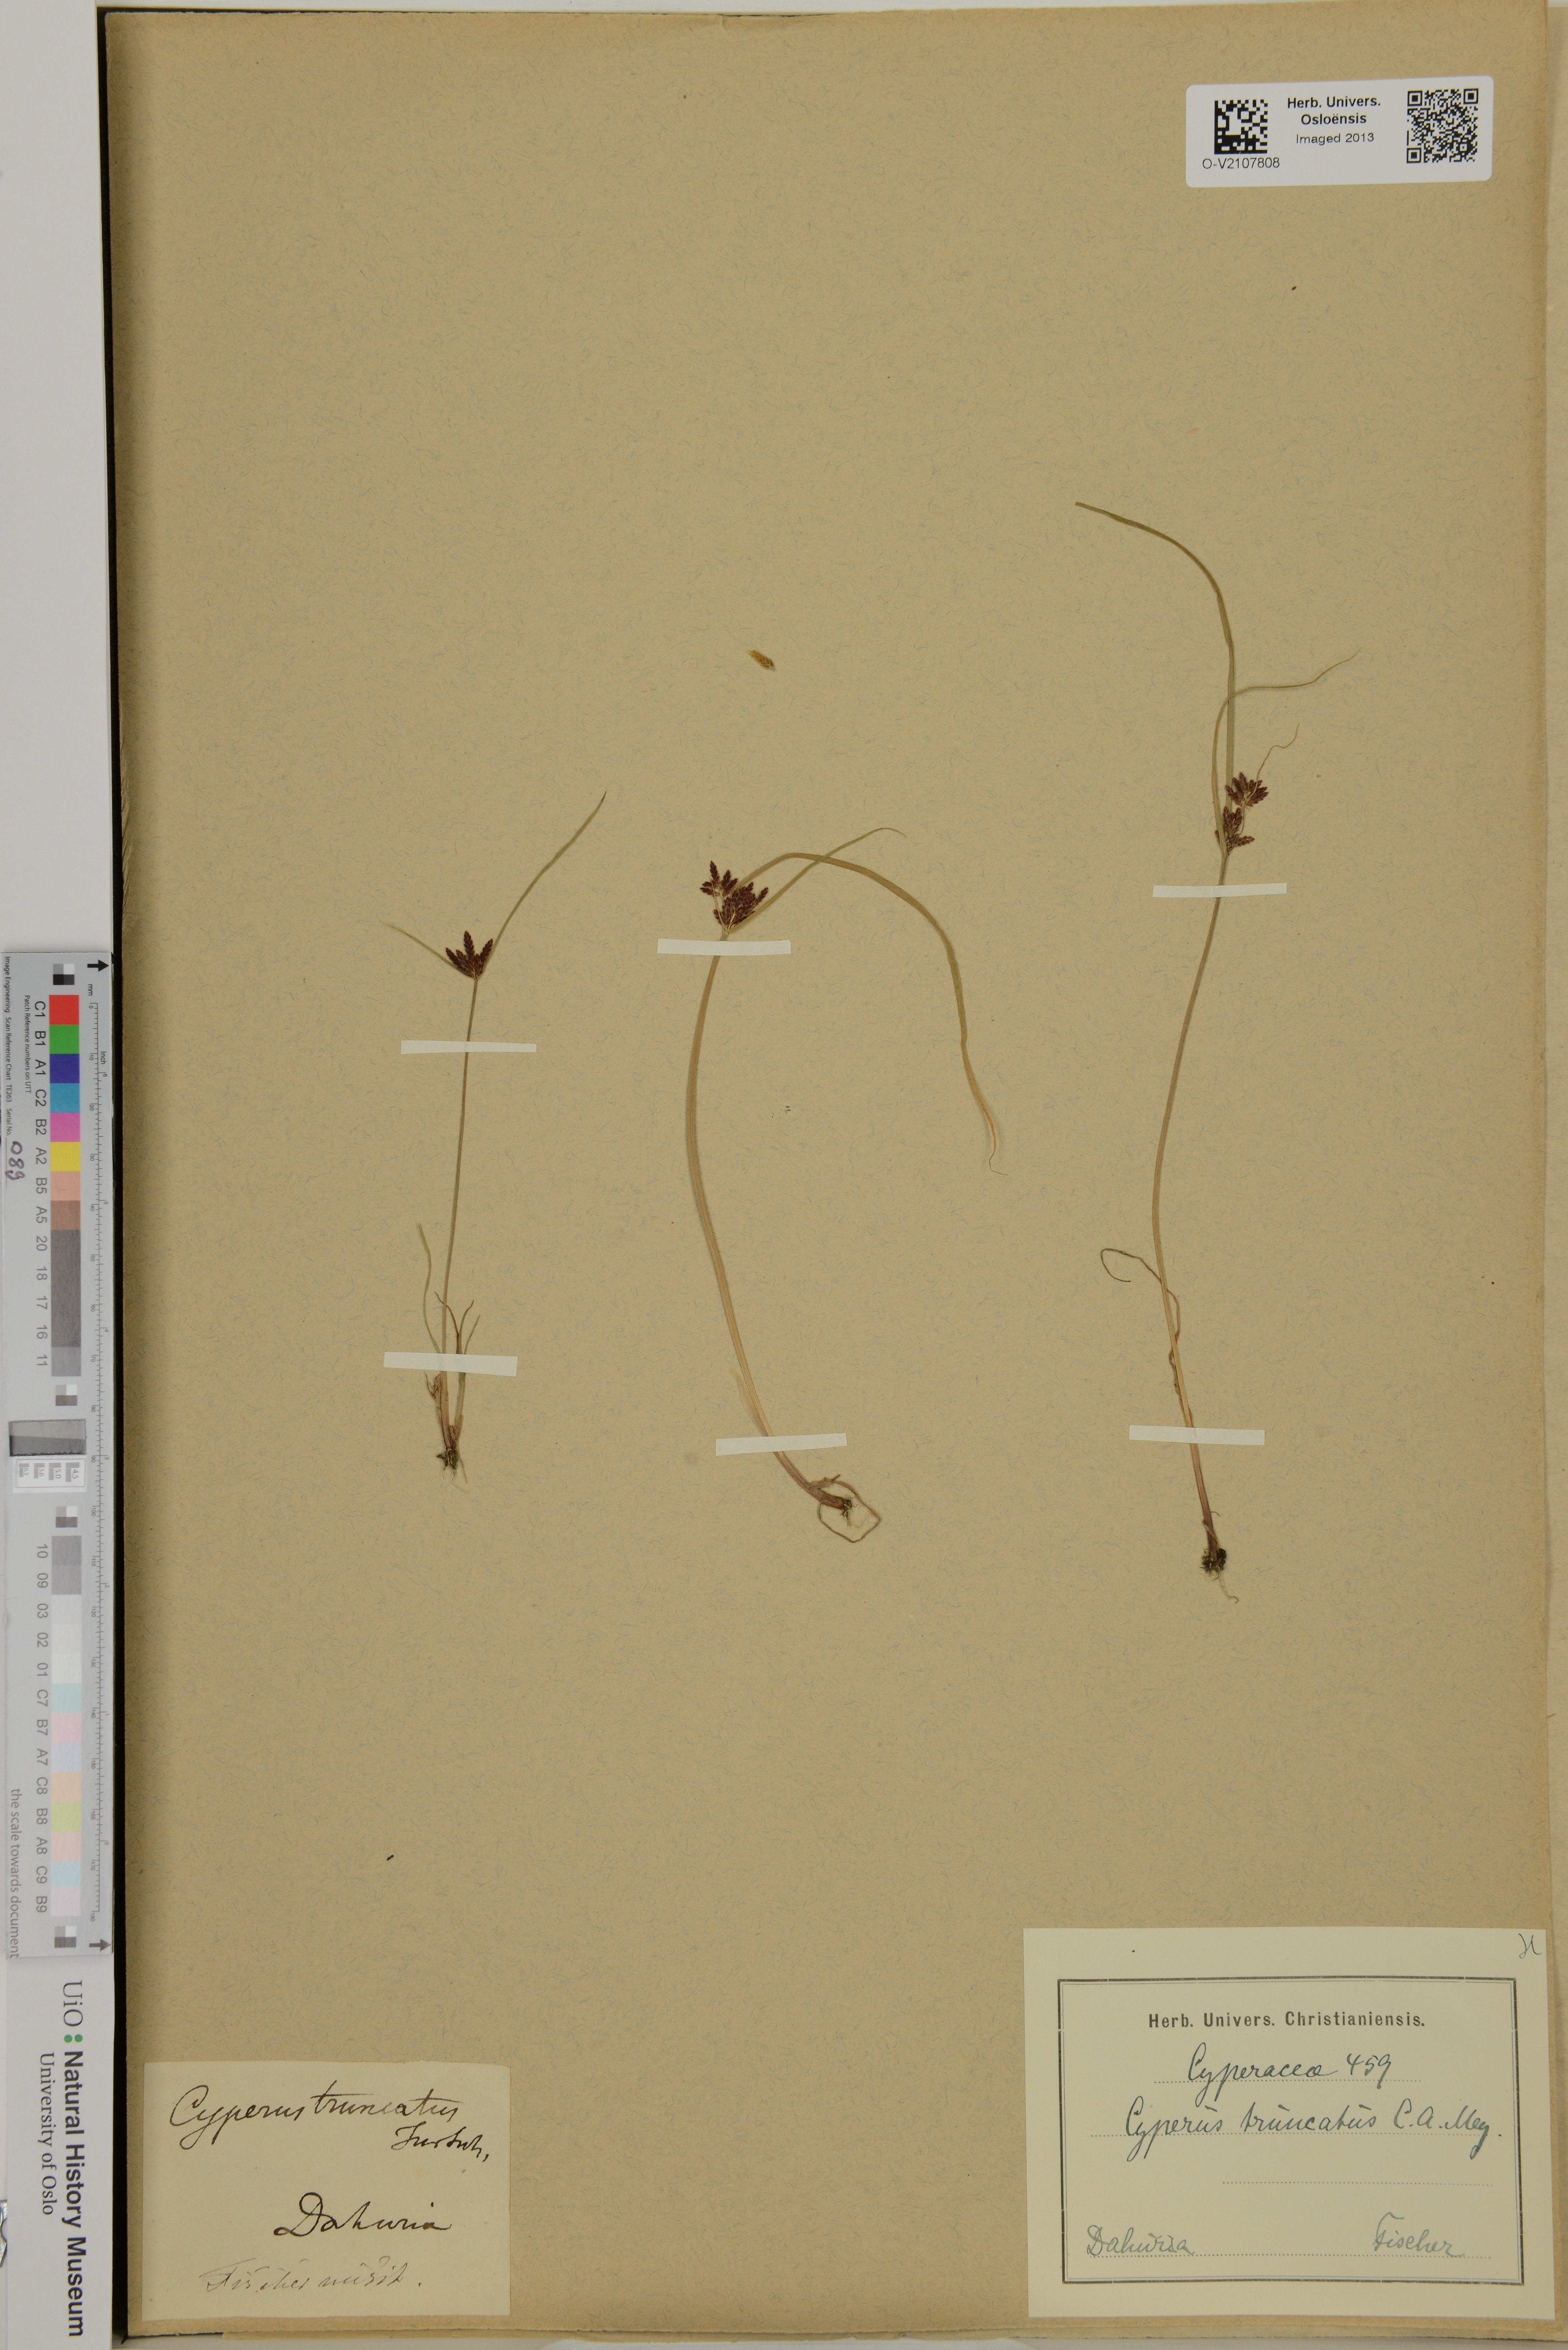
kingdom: Plantae
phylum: Tracheophyta
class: Liliopsida
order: Poales
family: Cyperaceae
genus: Cyperus
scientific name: Cyperus
